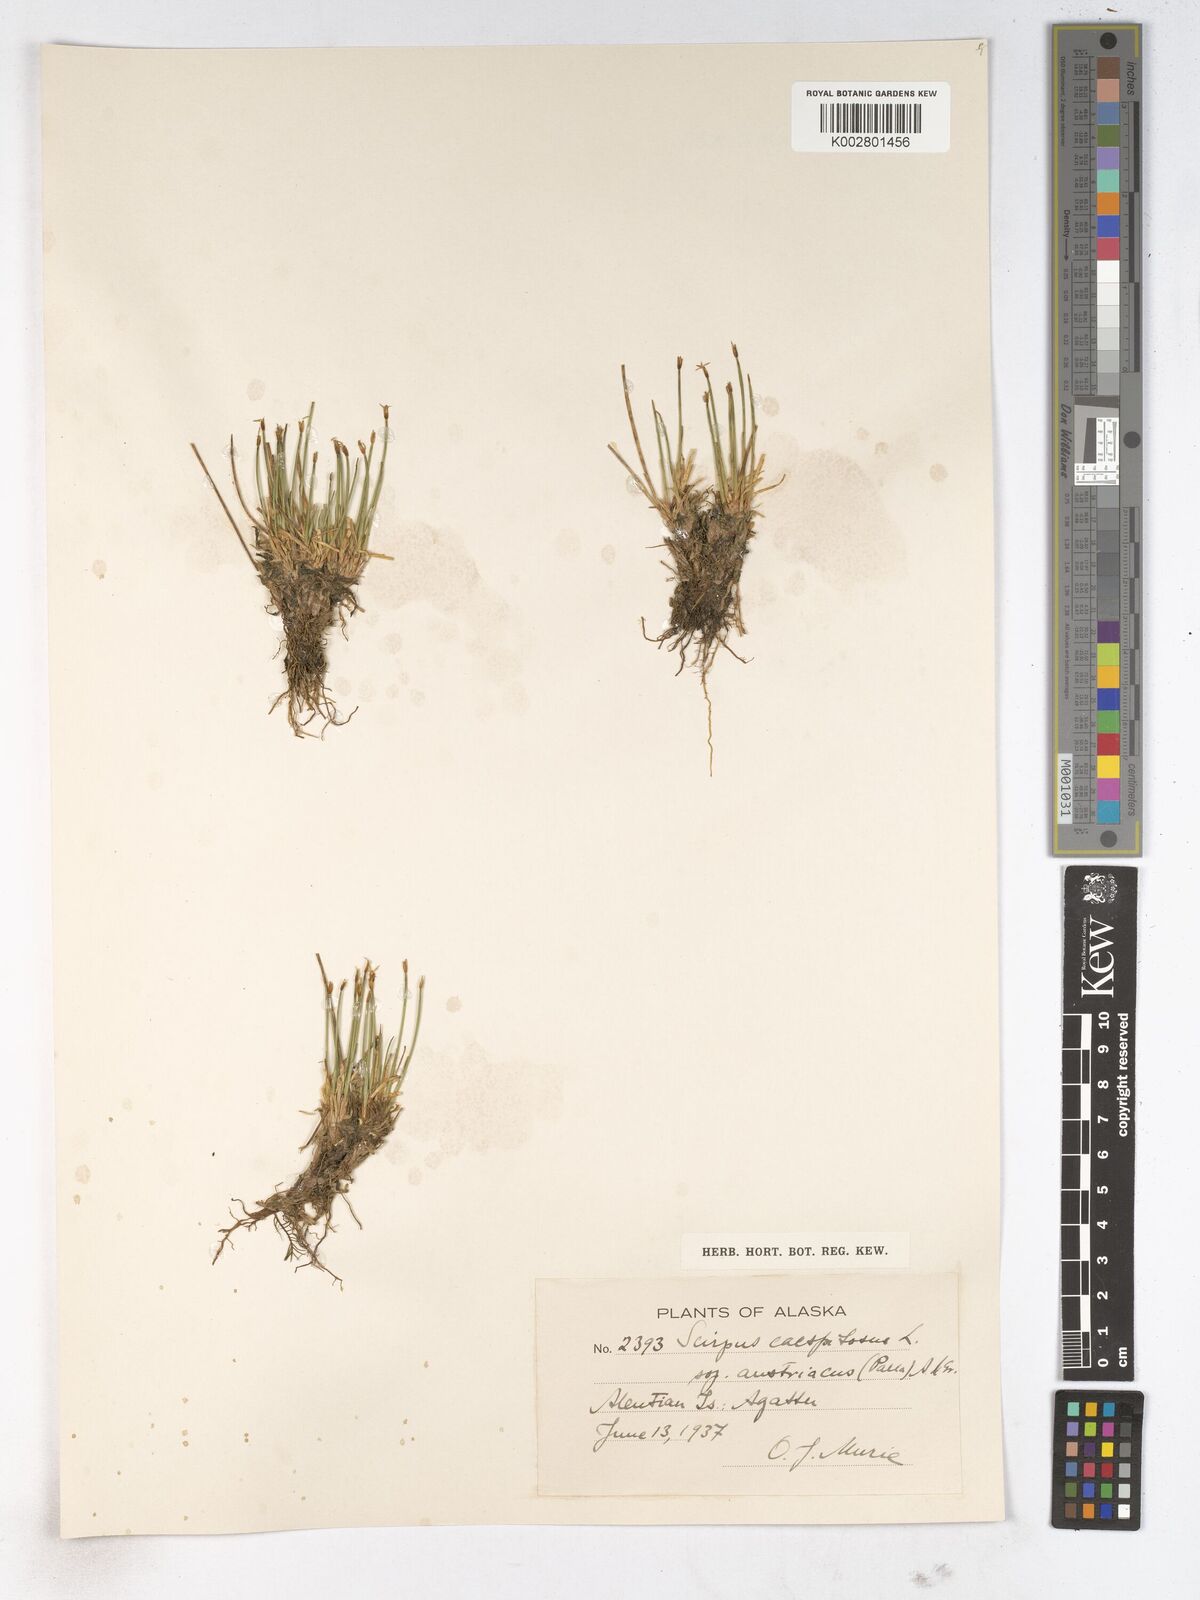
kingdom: Plantae
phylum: Tracheophyta
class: Liliopsida
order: Poales
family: Cyperaceae
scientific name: Cyperaceae
